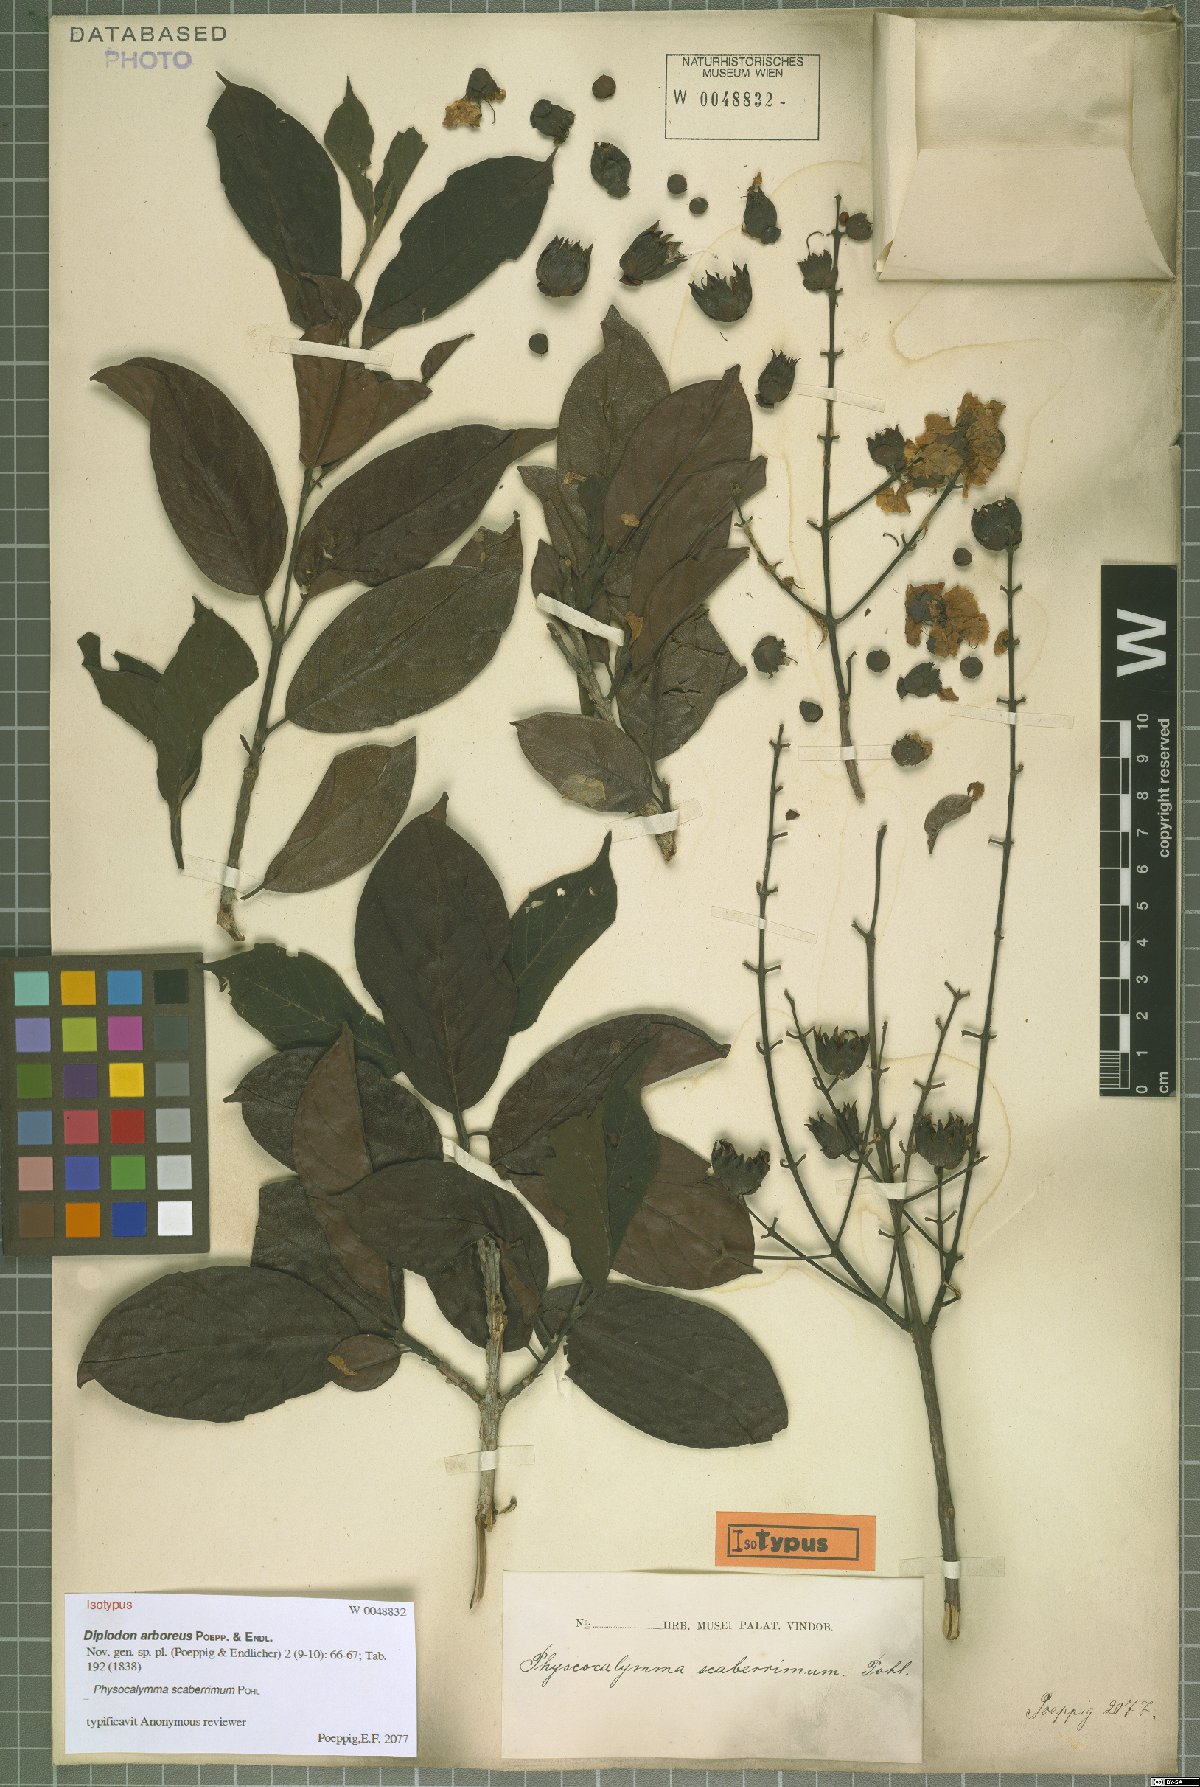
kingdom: Plantae
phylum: Tracheophyta
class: Magnoliopsida
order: Myrtales
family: Lythraceae
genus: Physocalymma
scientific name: Physocalymma scaberrimum
